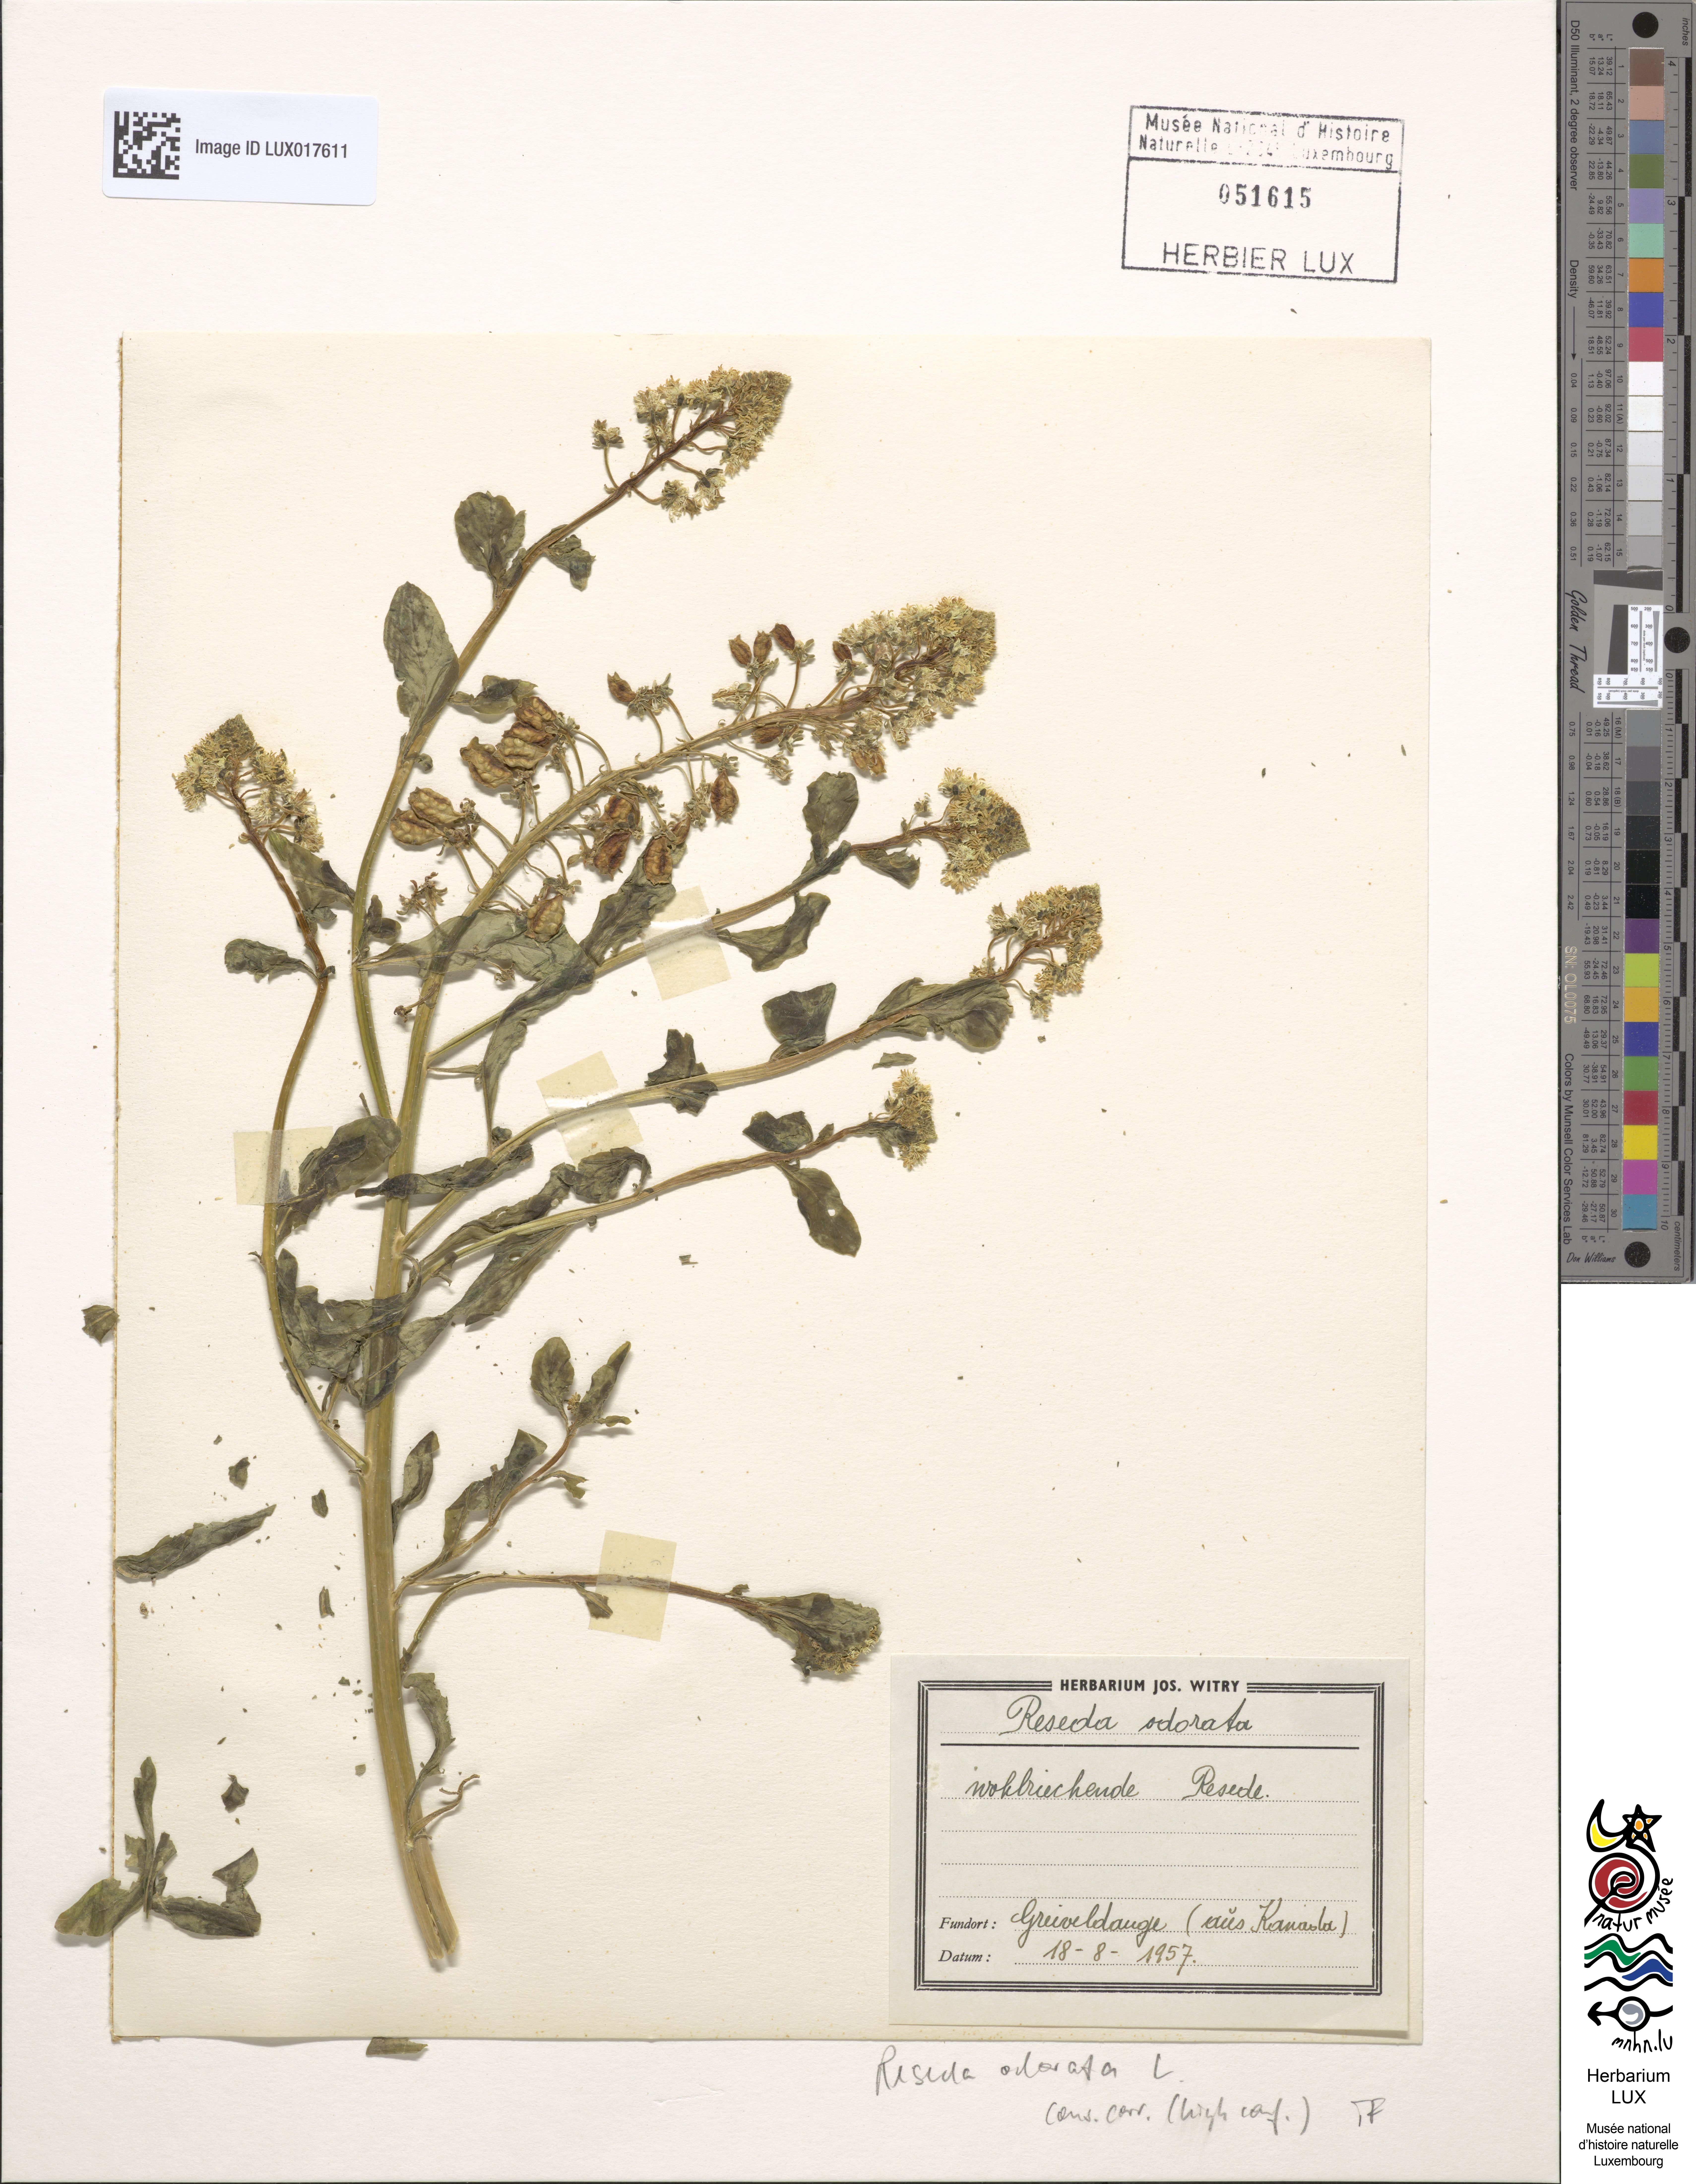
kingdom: Plantae
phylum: Tracheophyta
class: Magnoliopsida
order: Brassicales
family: Resedaceae
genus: Reseda
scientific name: Reseda odorata
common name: Garden mignonette
